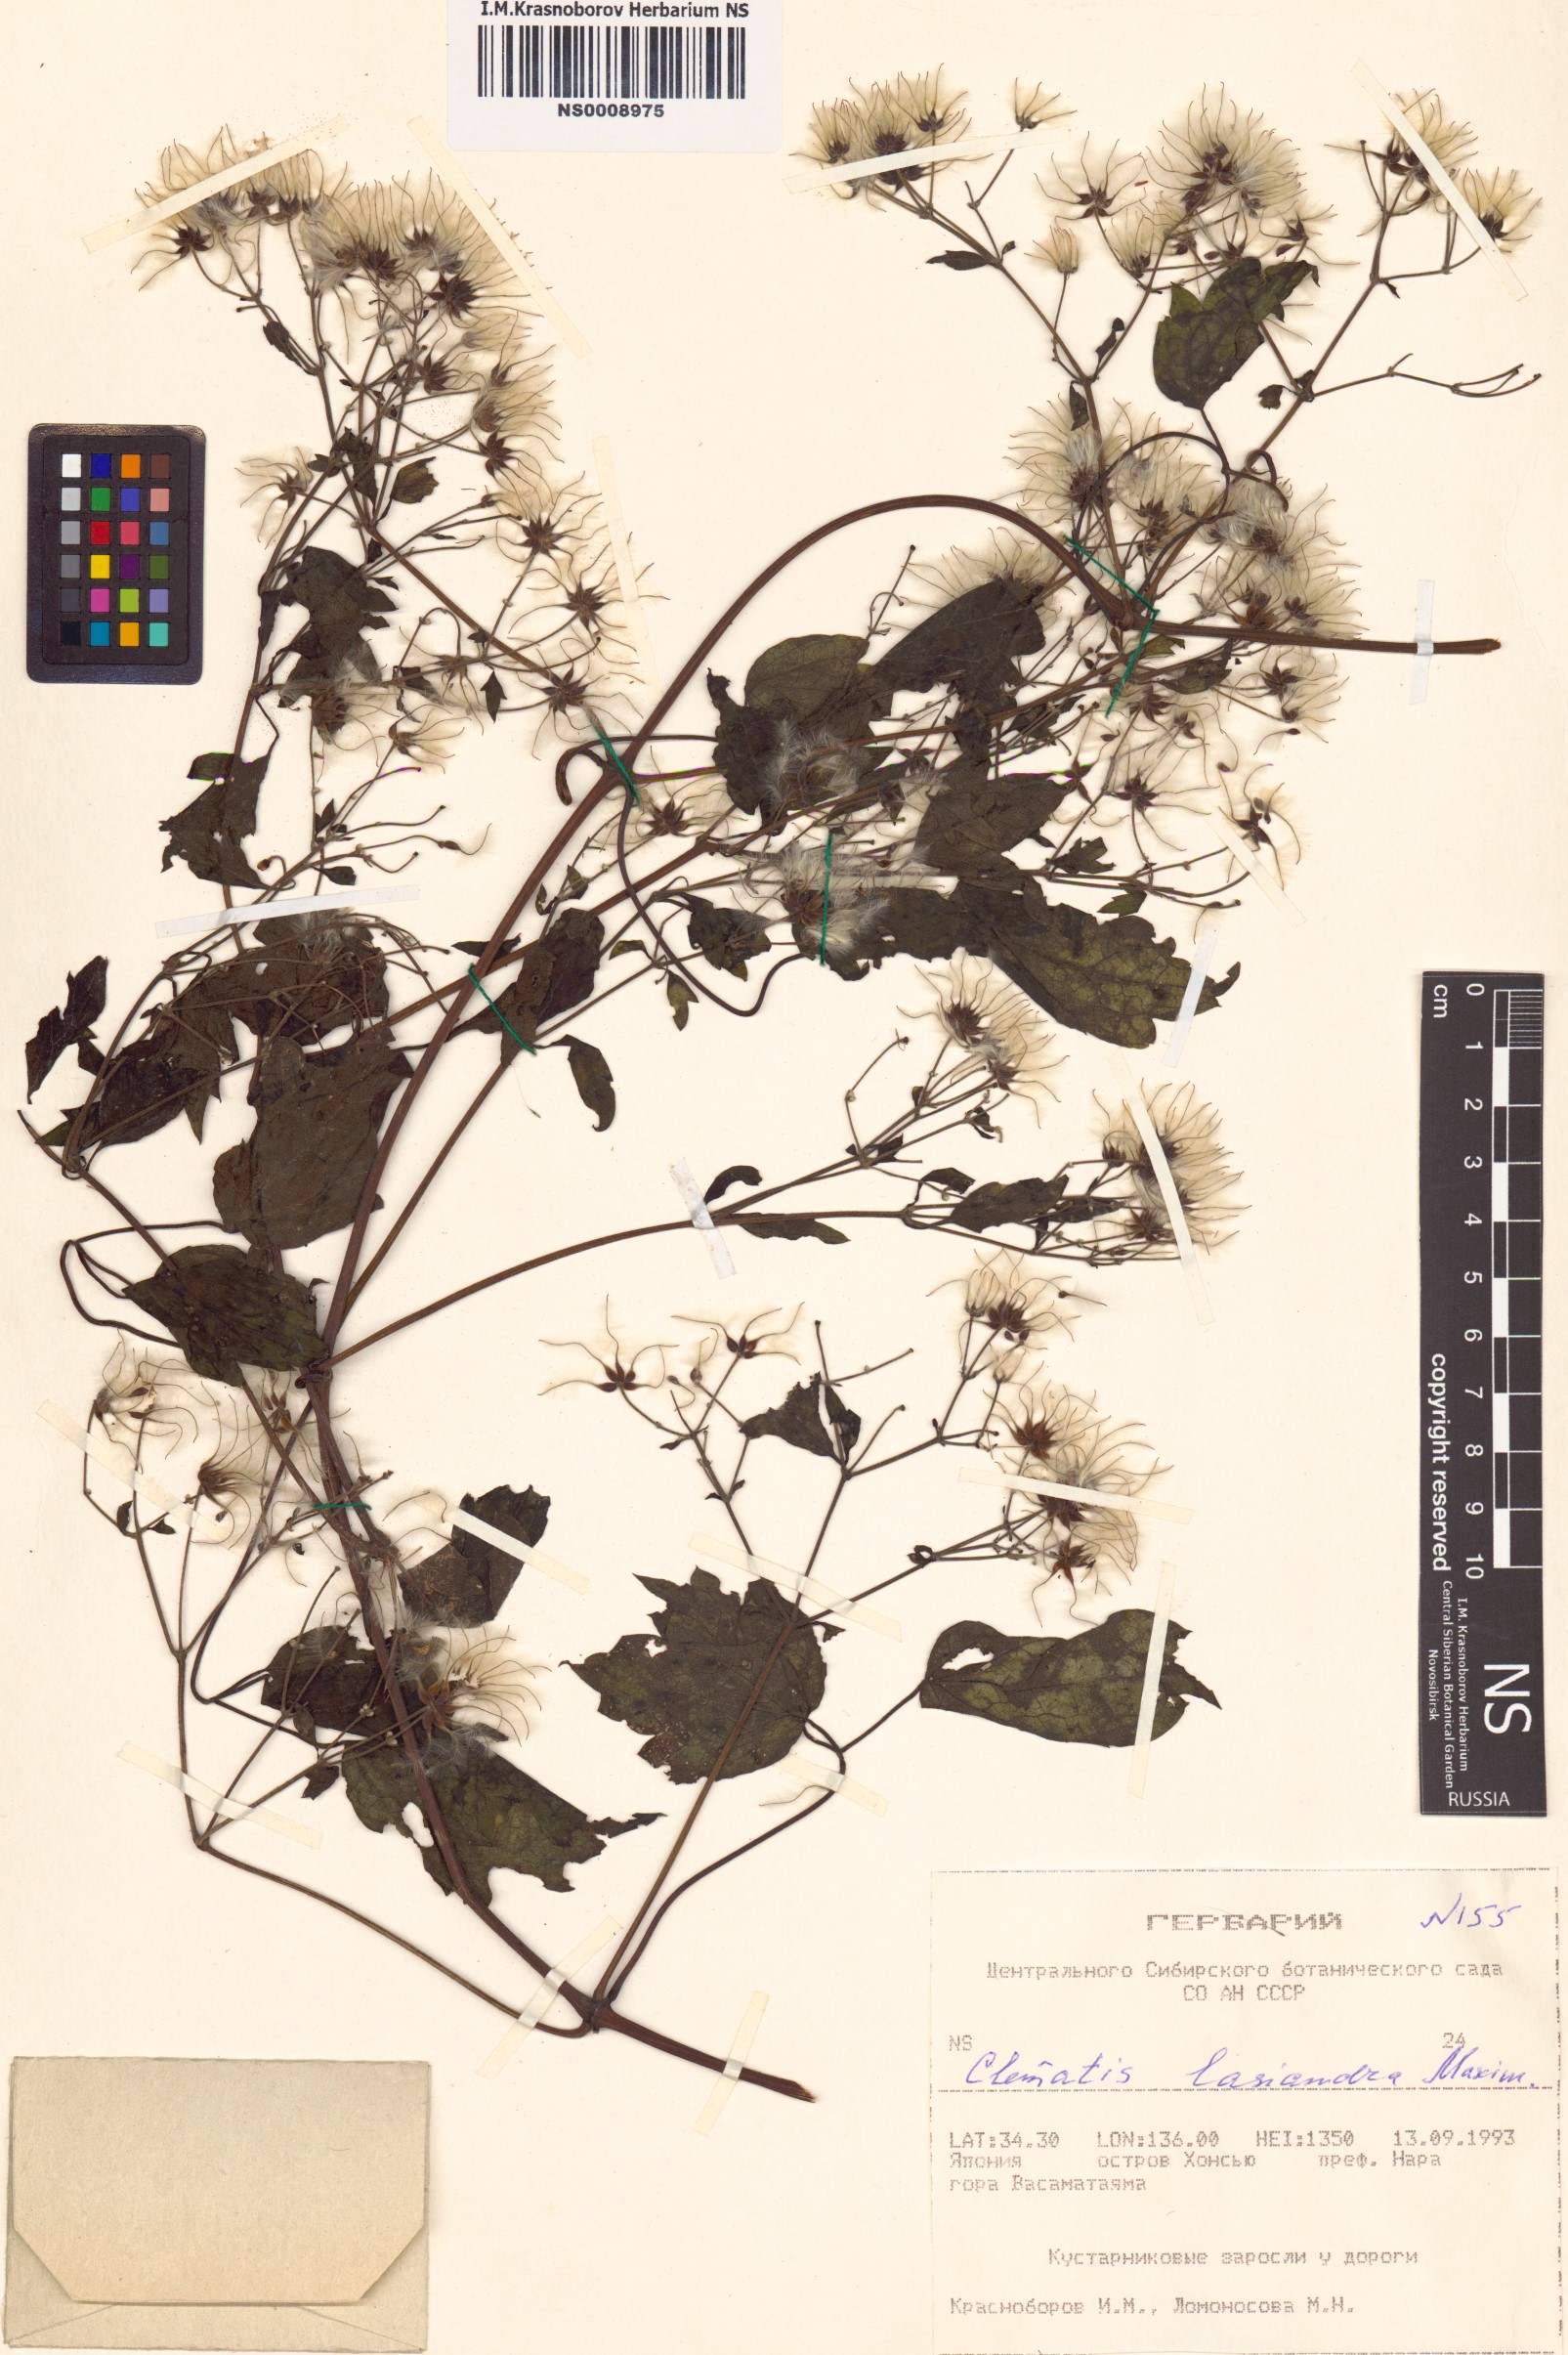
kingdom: Plantae
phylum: Tracheophyta
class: Magnoliopsida
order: Ranunculales
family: Ranunculaceae
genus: Clematis
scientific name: Clematis lasiandra
